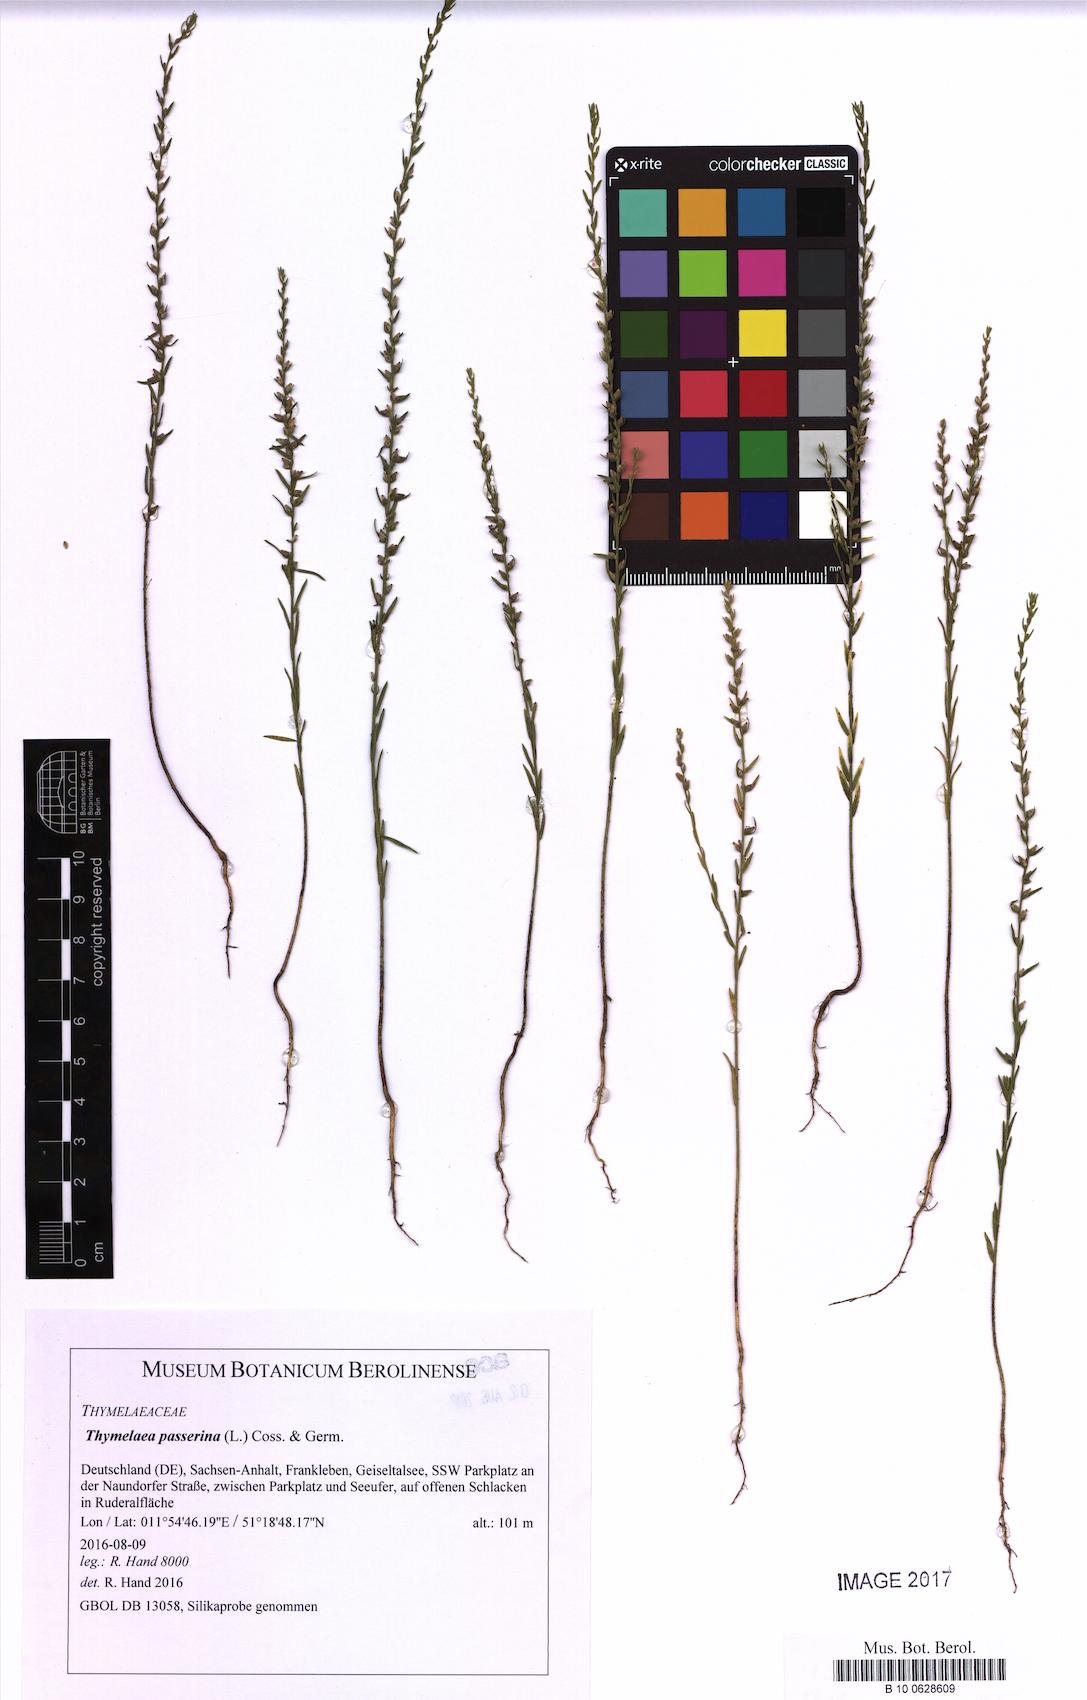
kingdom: Plantae
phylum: Tracheophyta
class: Magnoliopsida
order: Malvales
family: Thymelaeaceae
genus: Thymelaea
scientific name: Thymelaea passerina
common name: Annual thymelaea
